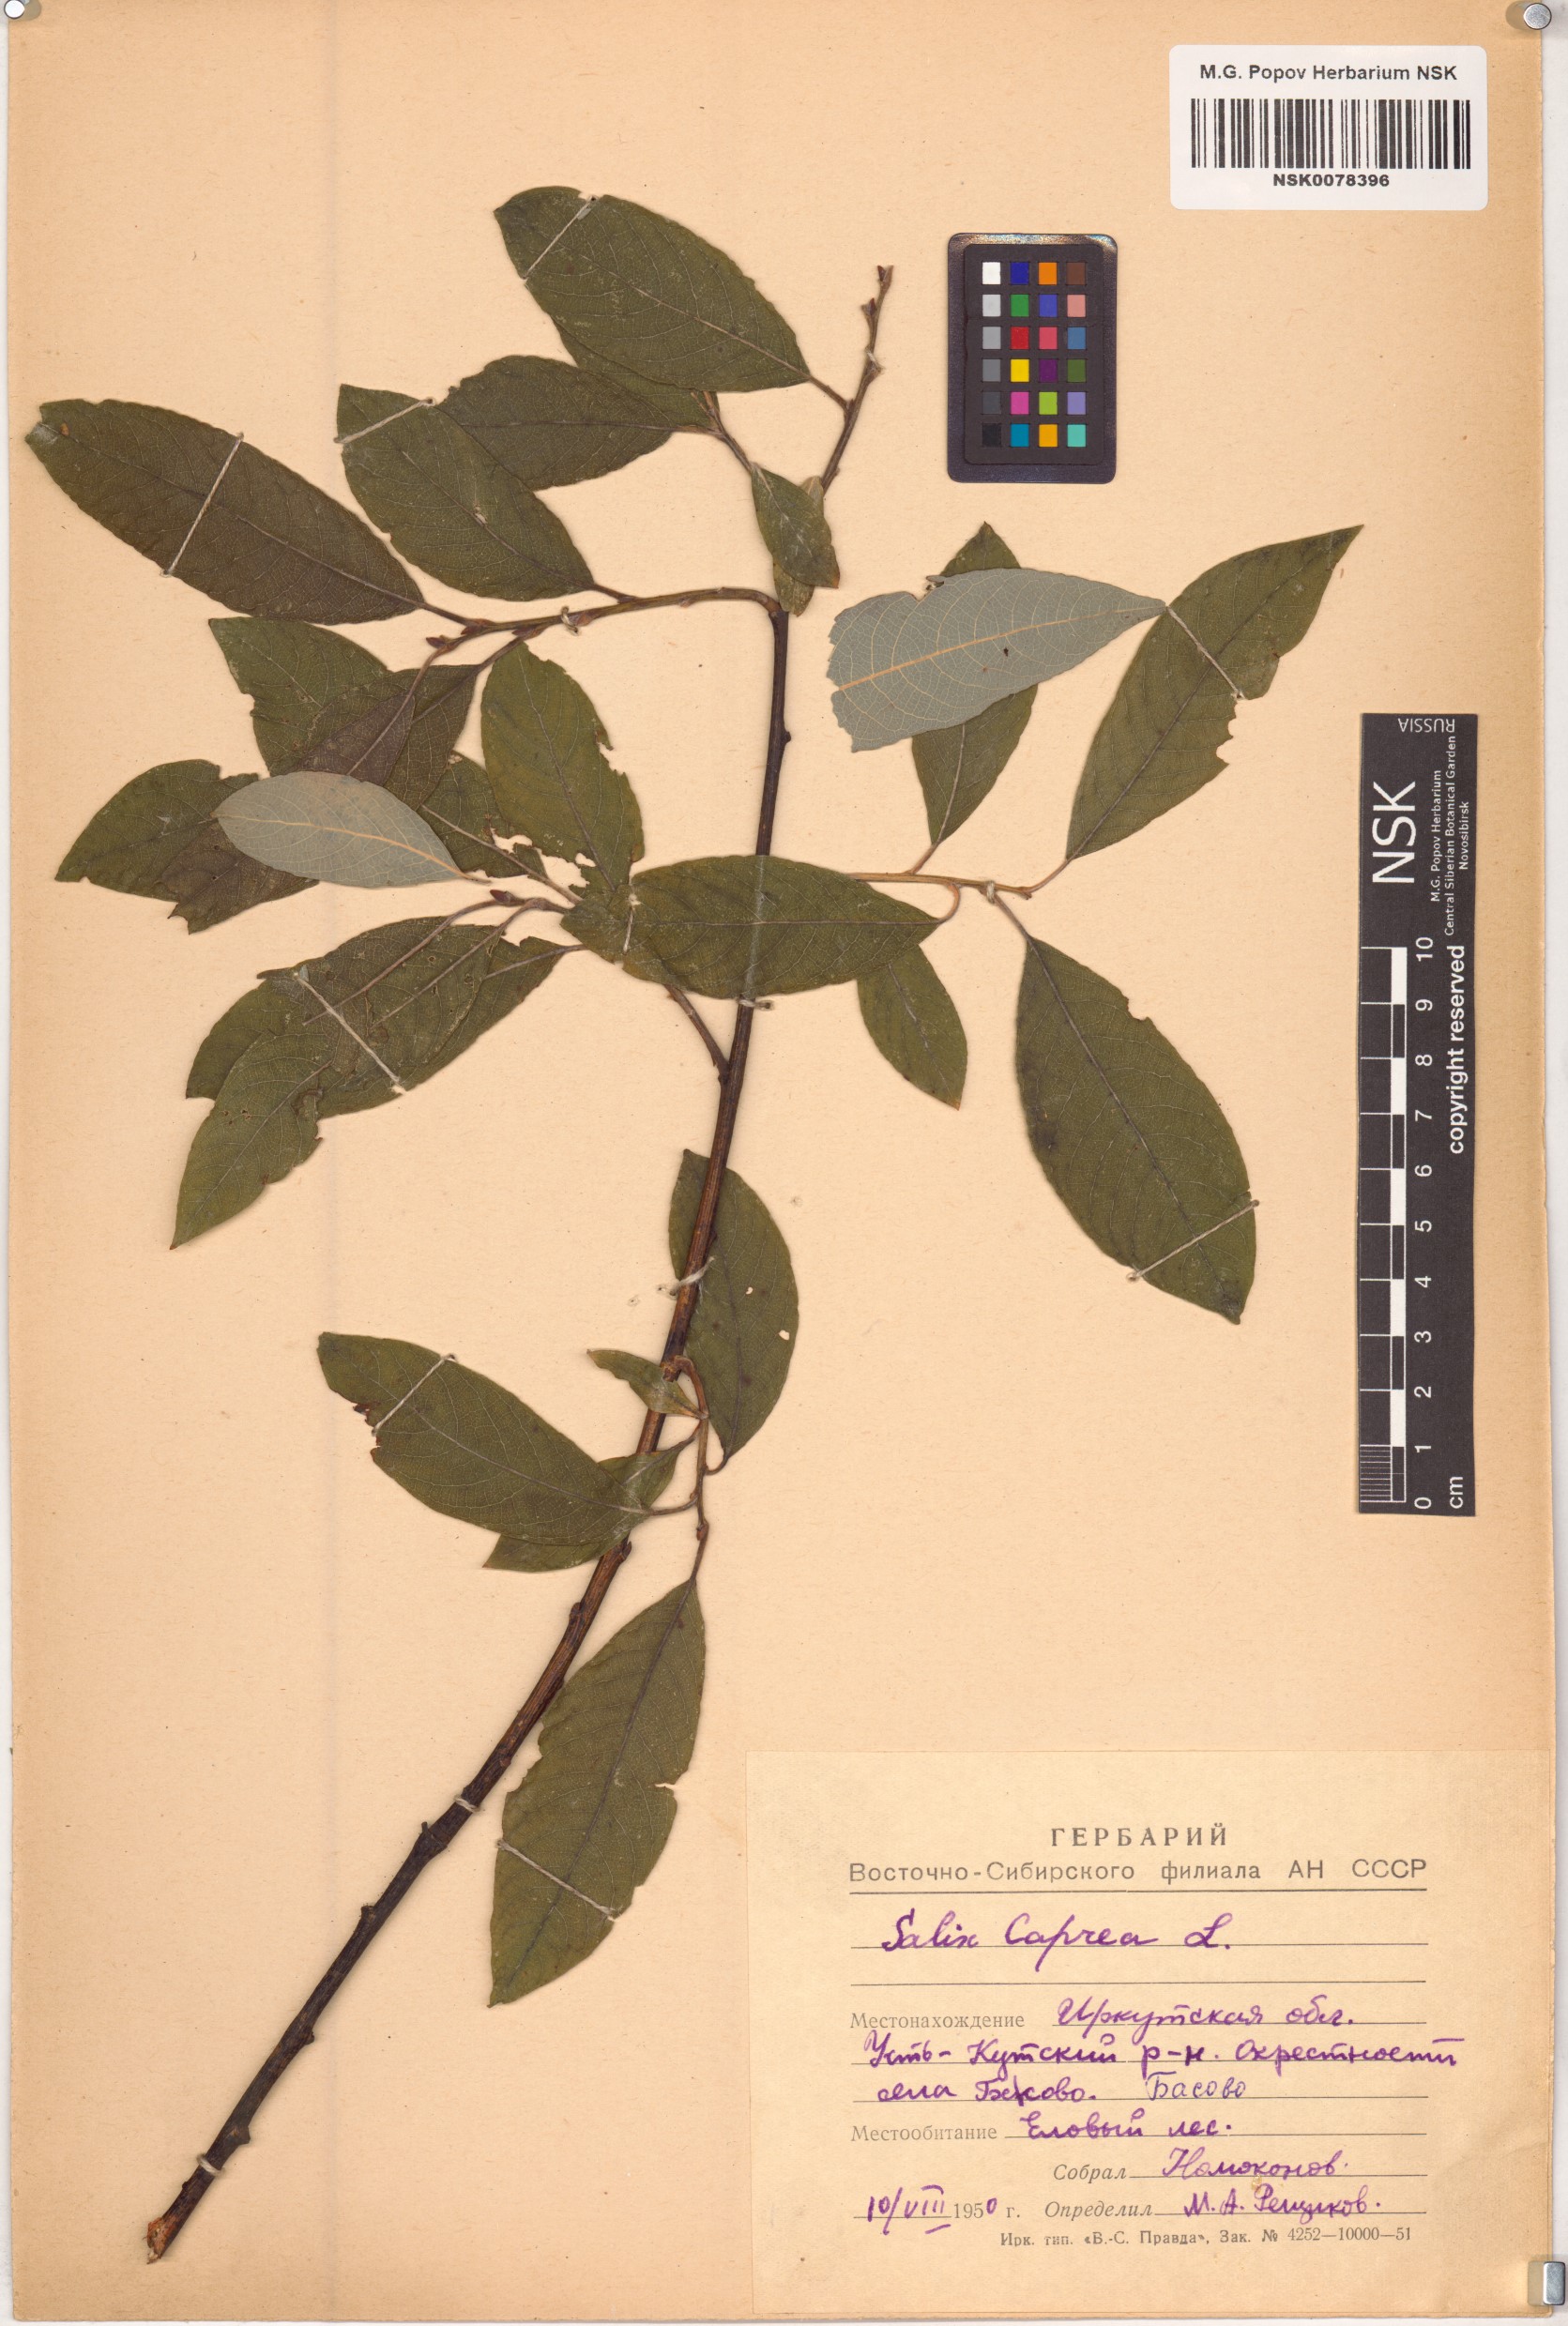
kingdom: Plantae
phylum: Tracheophyta
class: Magnoliopsida
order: Malpighiales
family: Salicaceae
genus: Salix
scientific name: Salix caprea
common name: Goat willow
